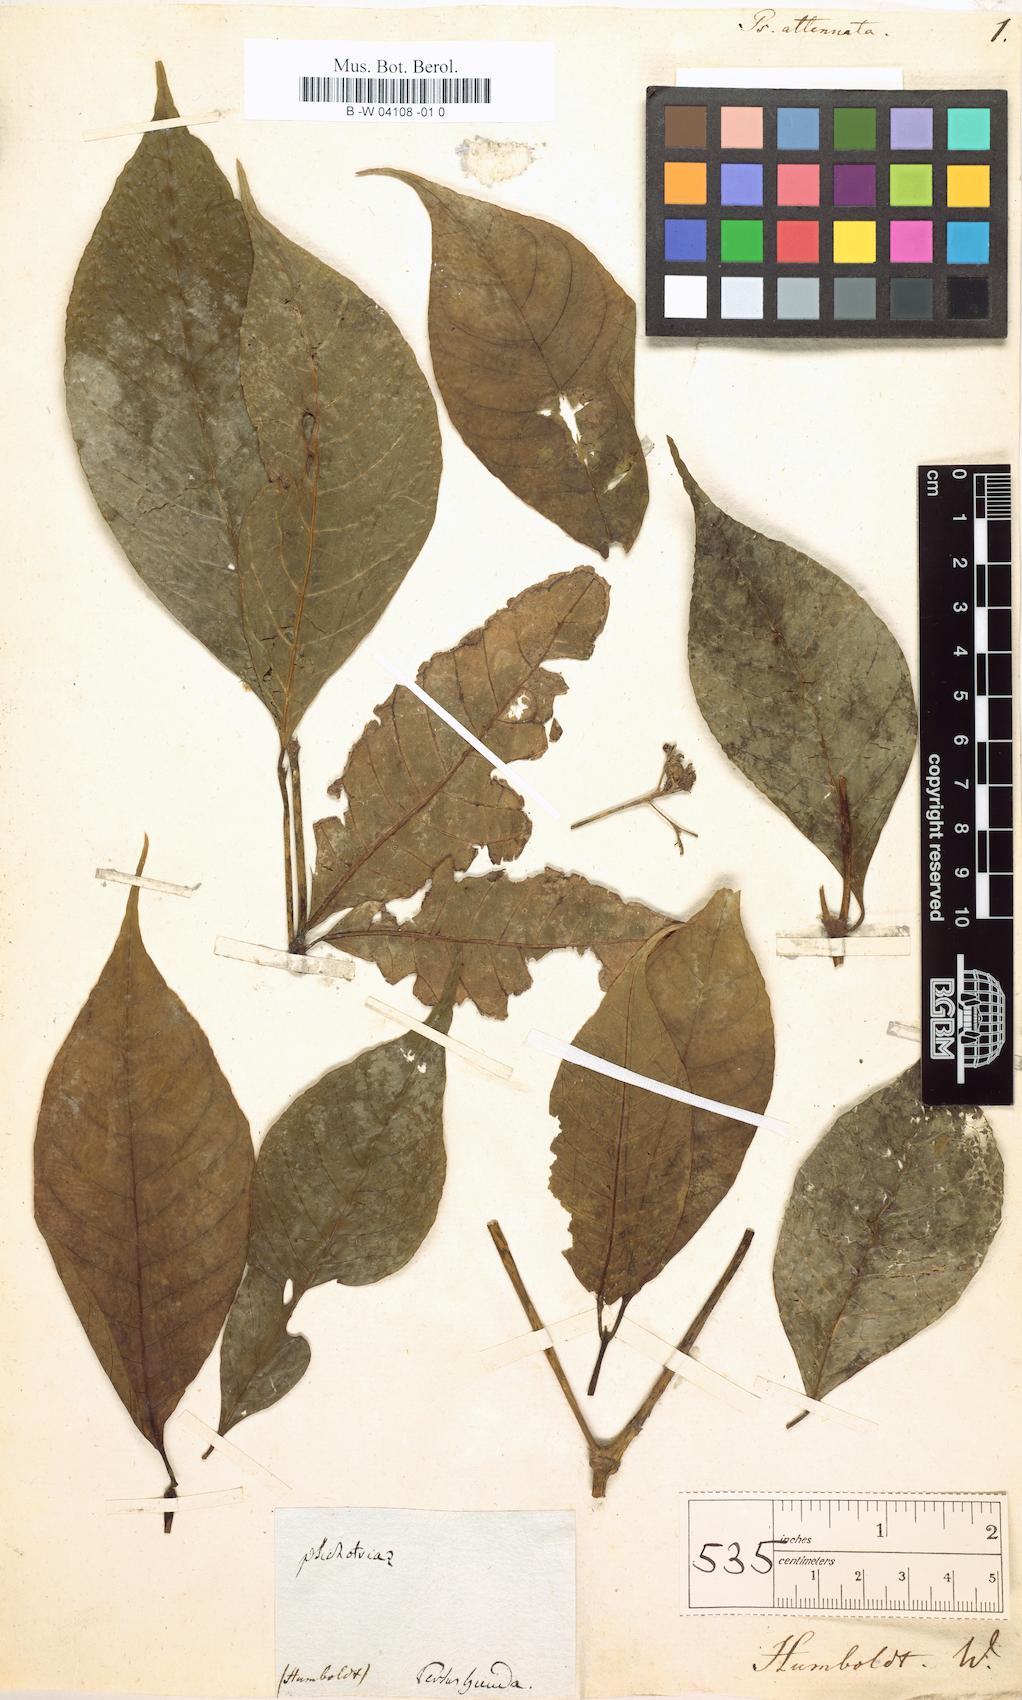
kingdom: Plantae
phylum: Tracheophyta
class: Magnoliopsida
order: Gentianales
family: Rubiaceae
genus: Psychotria
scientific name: Psychotria attenuata
